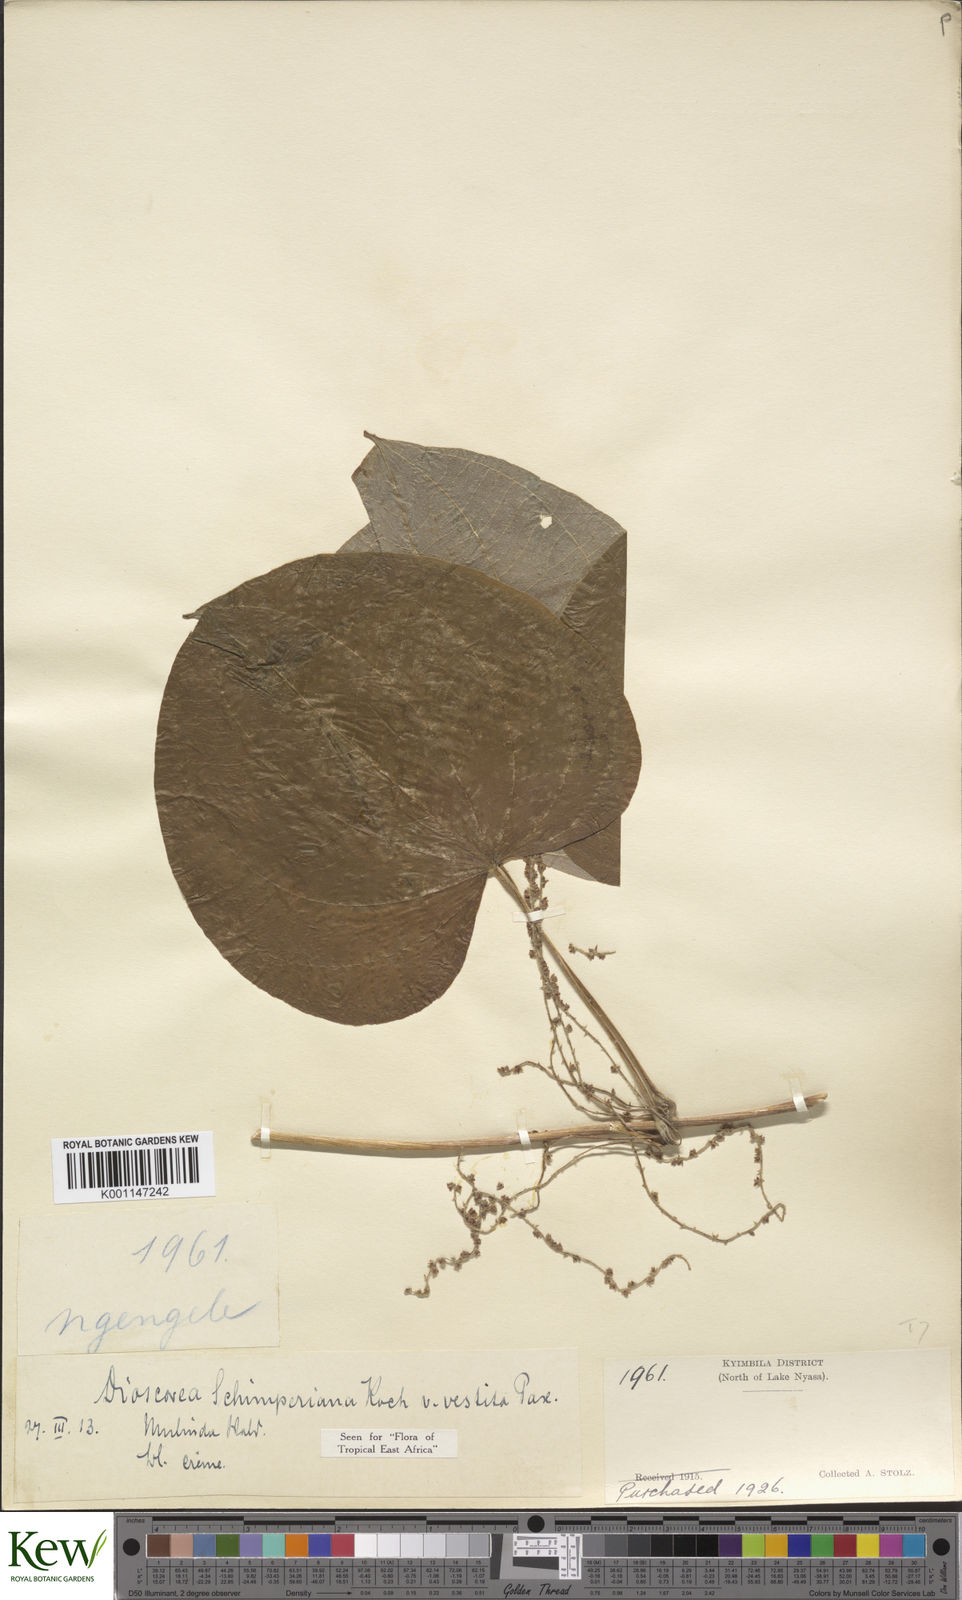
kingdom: Plantae
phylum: Tracheophyta
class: Liliopsida
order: Dioscoreales
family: Dioscoreaceae
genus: Dioscorea
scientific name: Dioscorea schimperiana
